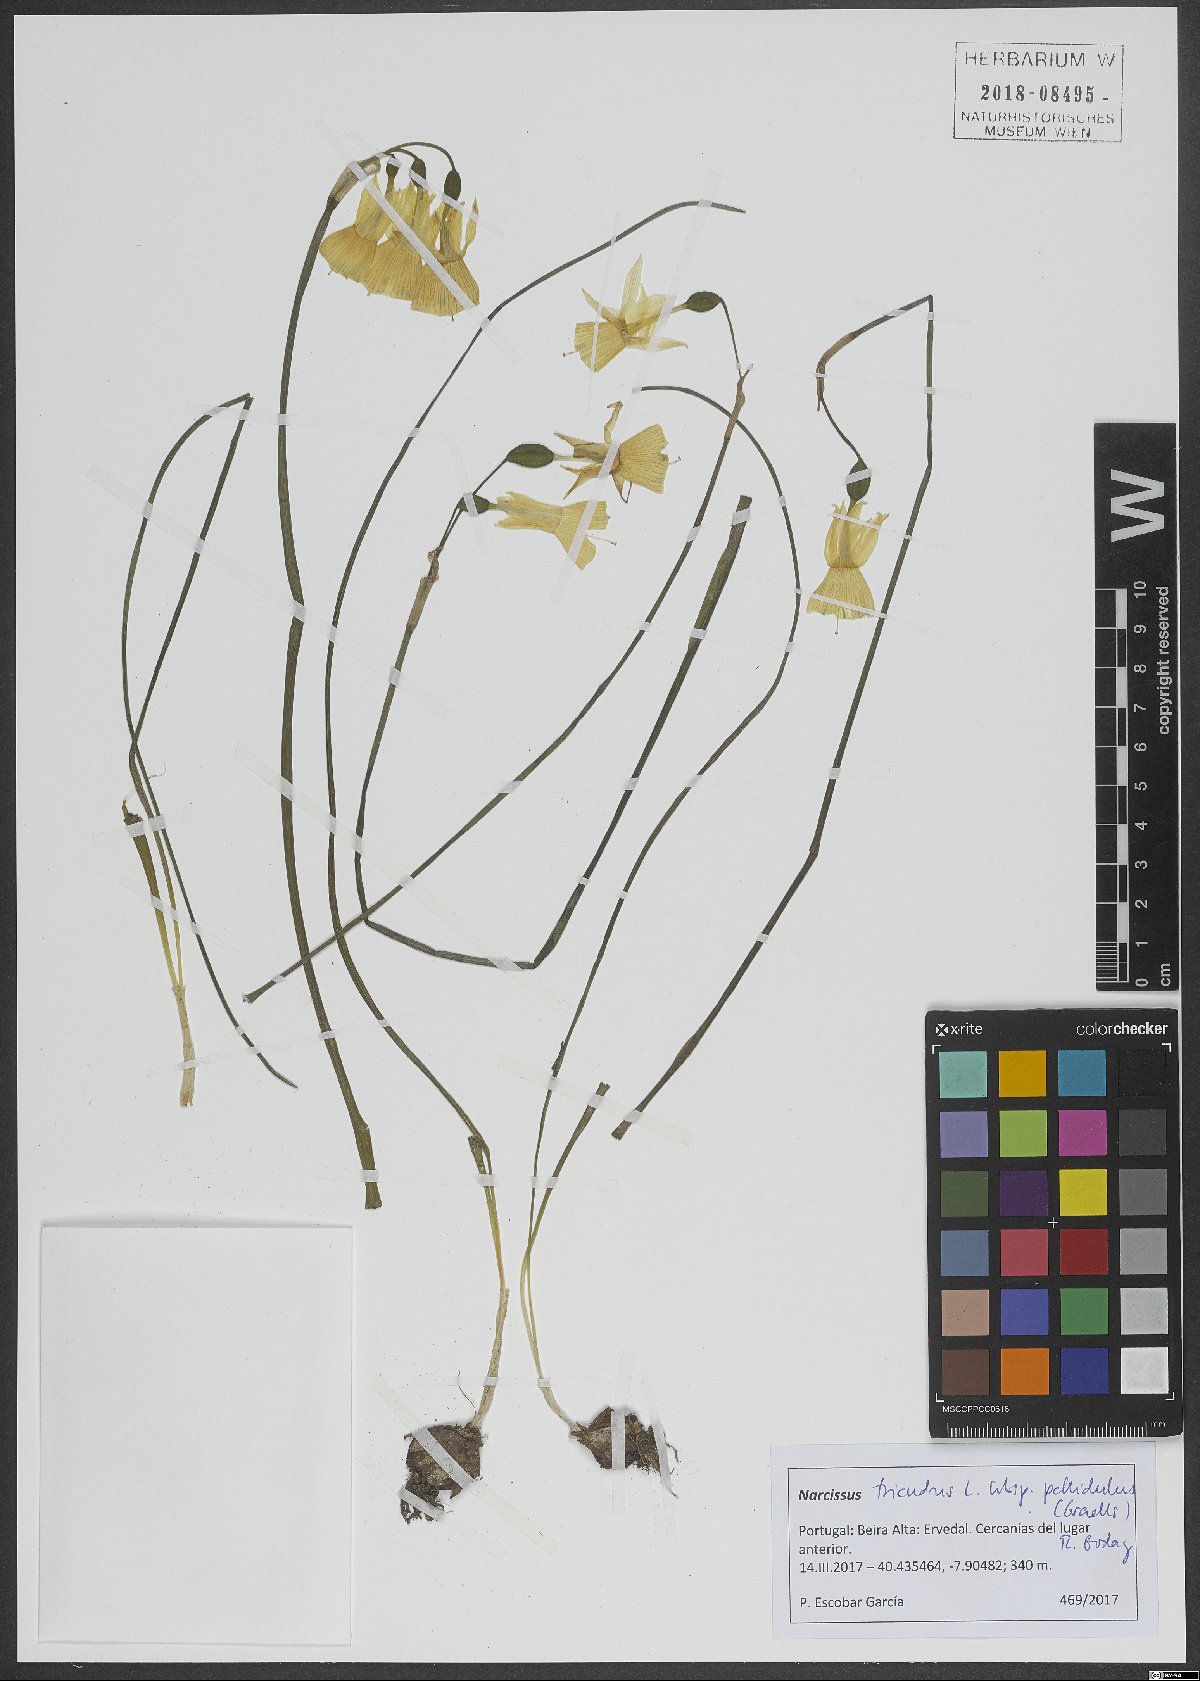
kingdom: Plantae
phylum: Tracheophyta
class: Liliopsida
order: Asparagales
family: Amaryllidaceae
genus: Narcissus
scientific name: Narcissus triandrus
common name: Angel's-tears
